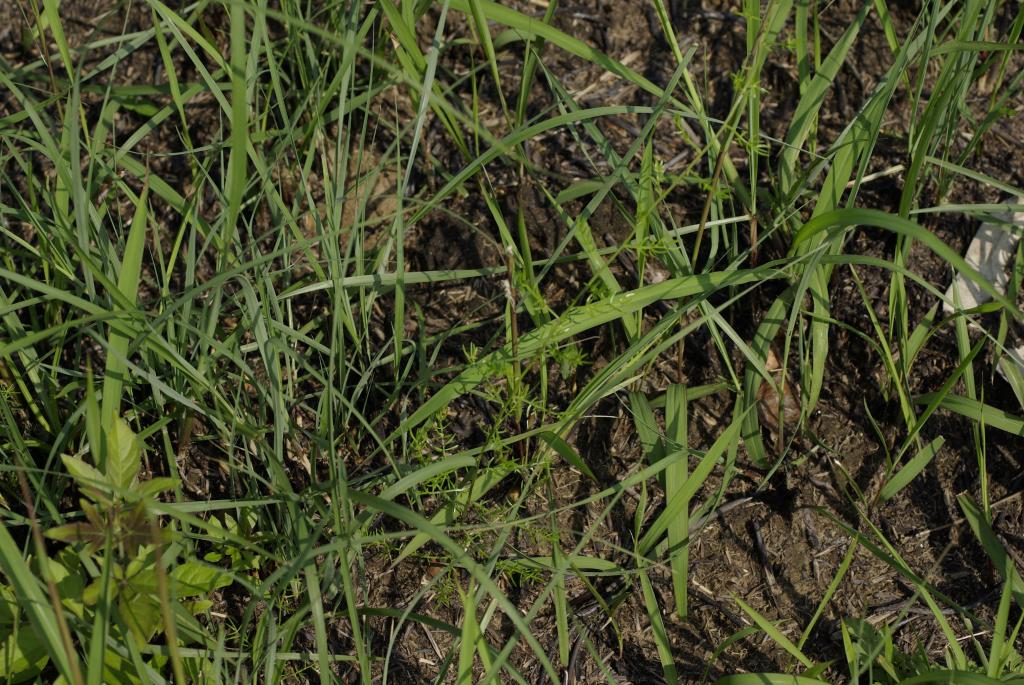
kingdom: Plantae
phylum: Tracheophyta
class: Liliopsida
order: Asparagales
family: Asparagaceae
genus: Asparagus
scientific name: Asparagus cochinchinensis
